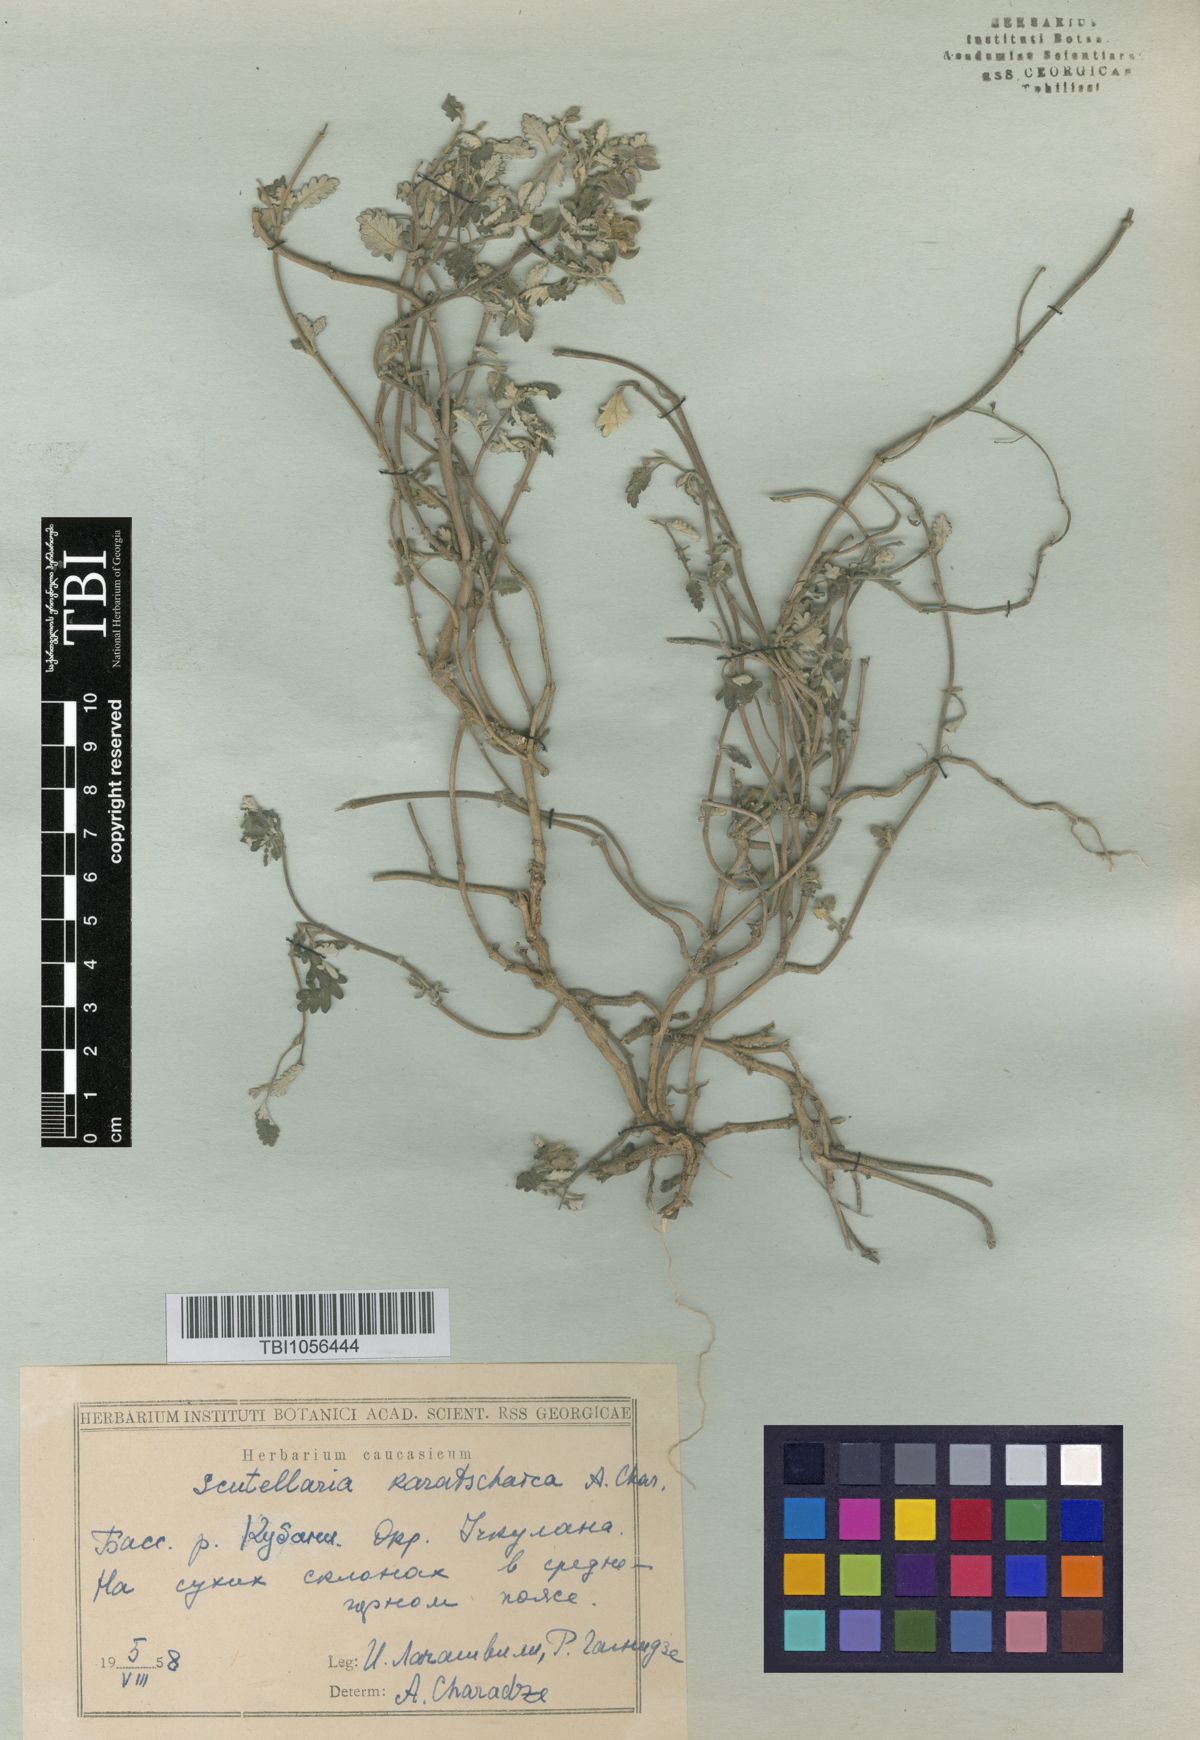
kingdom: Plantae
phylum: Tracheophyta
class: Magnoliopsida
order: Lamiales
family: Lamiaceae
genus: Scutellaria
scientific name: Scutellaria orientalis
